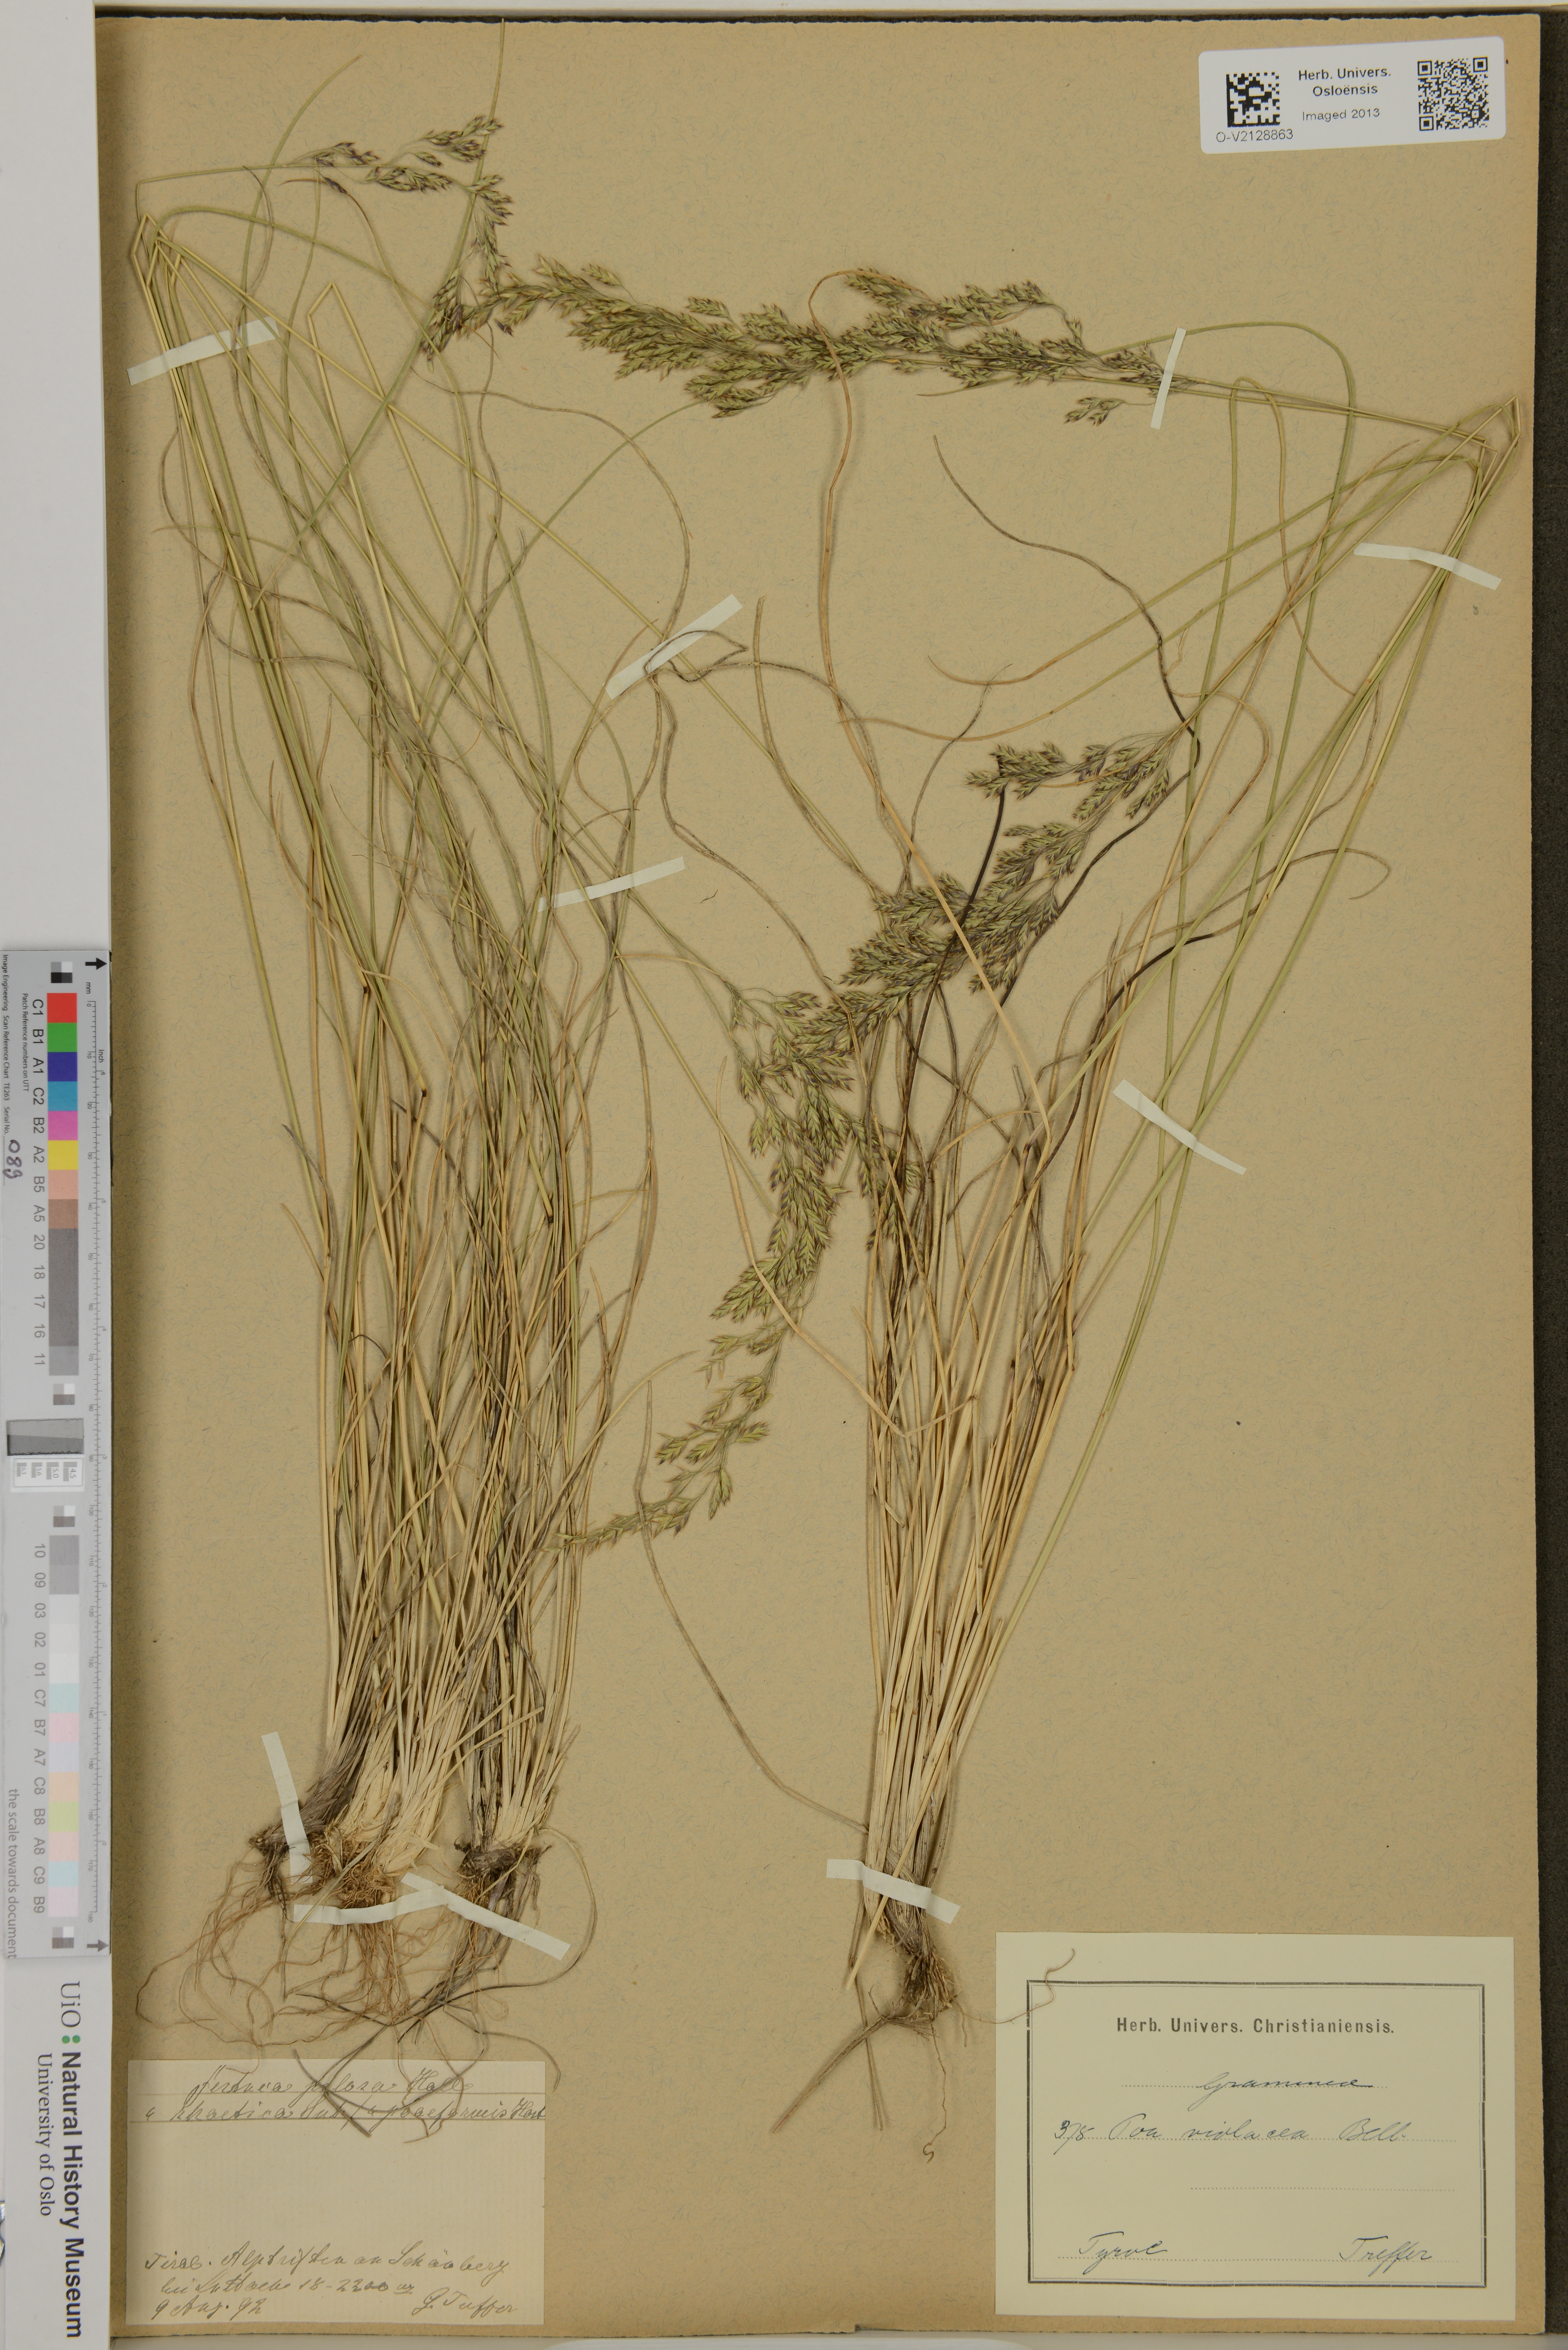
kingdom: Plantae
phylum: Tracheophyta
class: Liliopsida
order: Poales
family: Poaceae
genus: Bellardiochloa
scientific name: Bellardiochloa variegata
